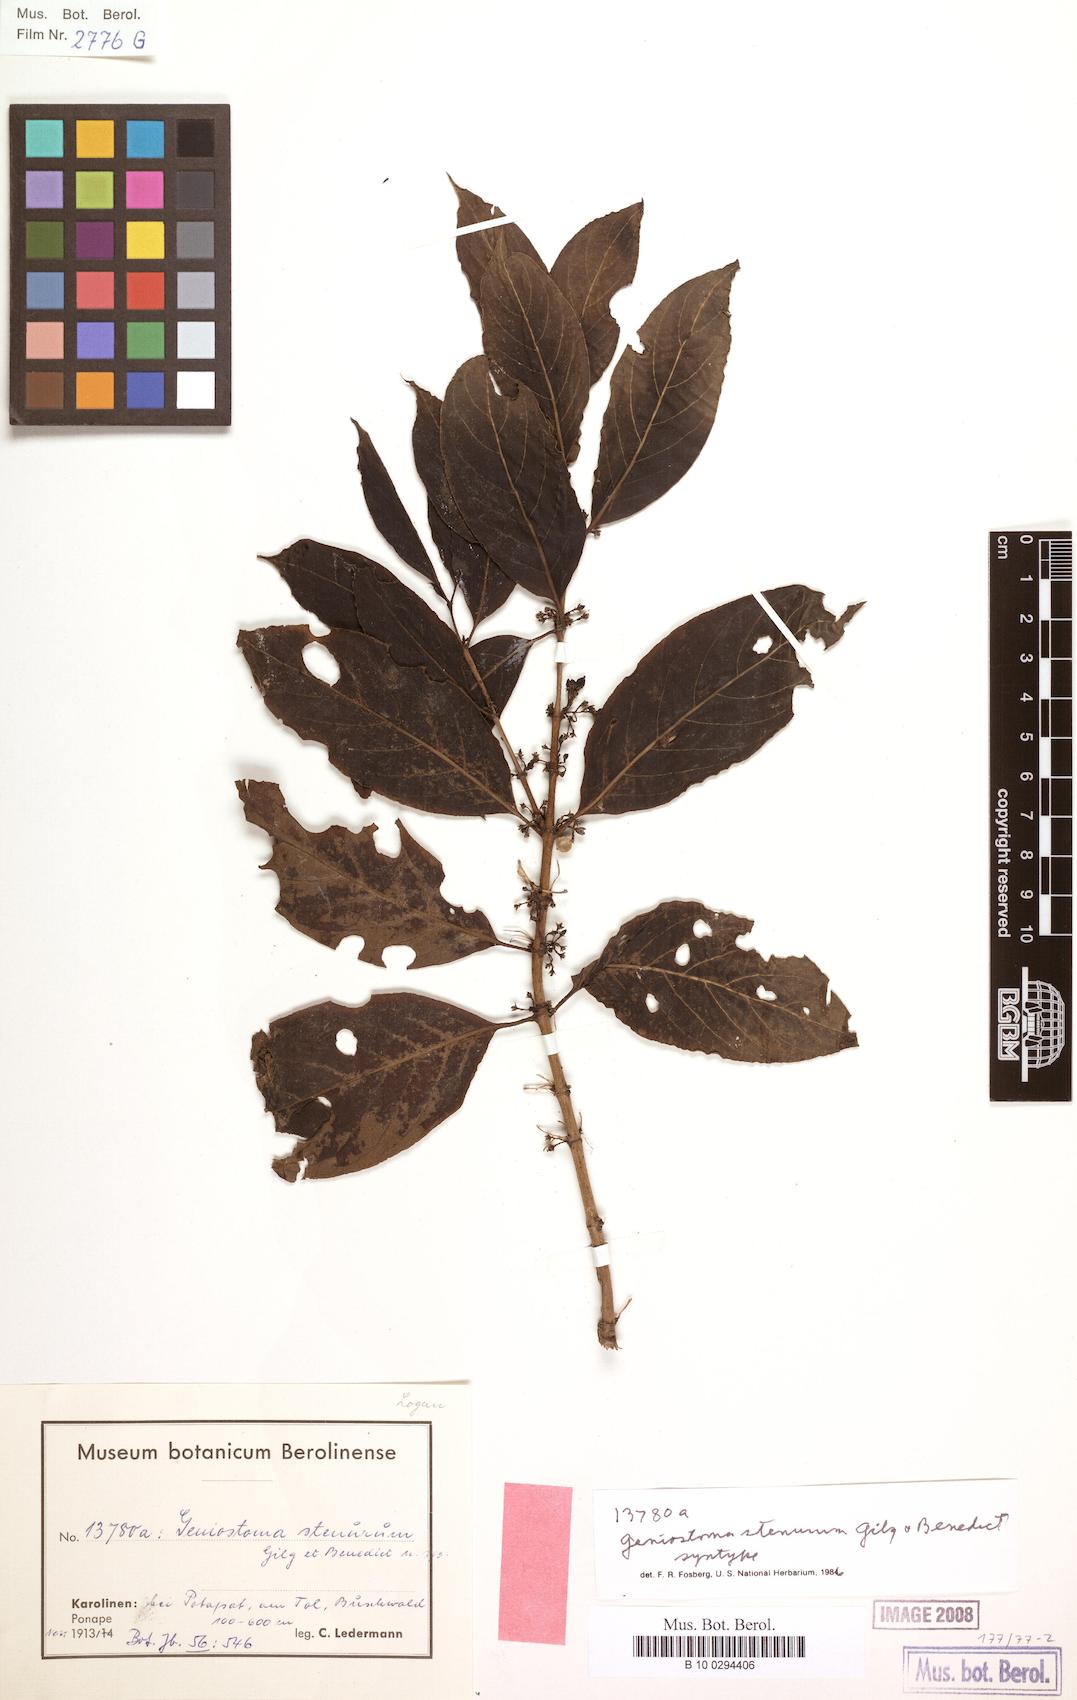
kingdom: Plantae
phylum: Tracheophyta
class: Magnoliopsida
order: Gentianales
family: Loganiaceae
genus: Geniostoma
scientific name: Geniostoma rupestre
